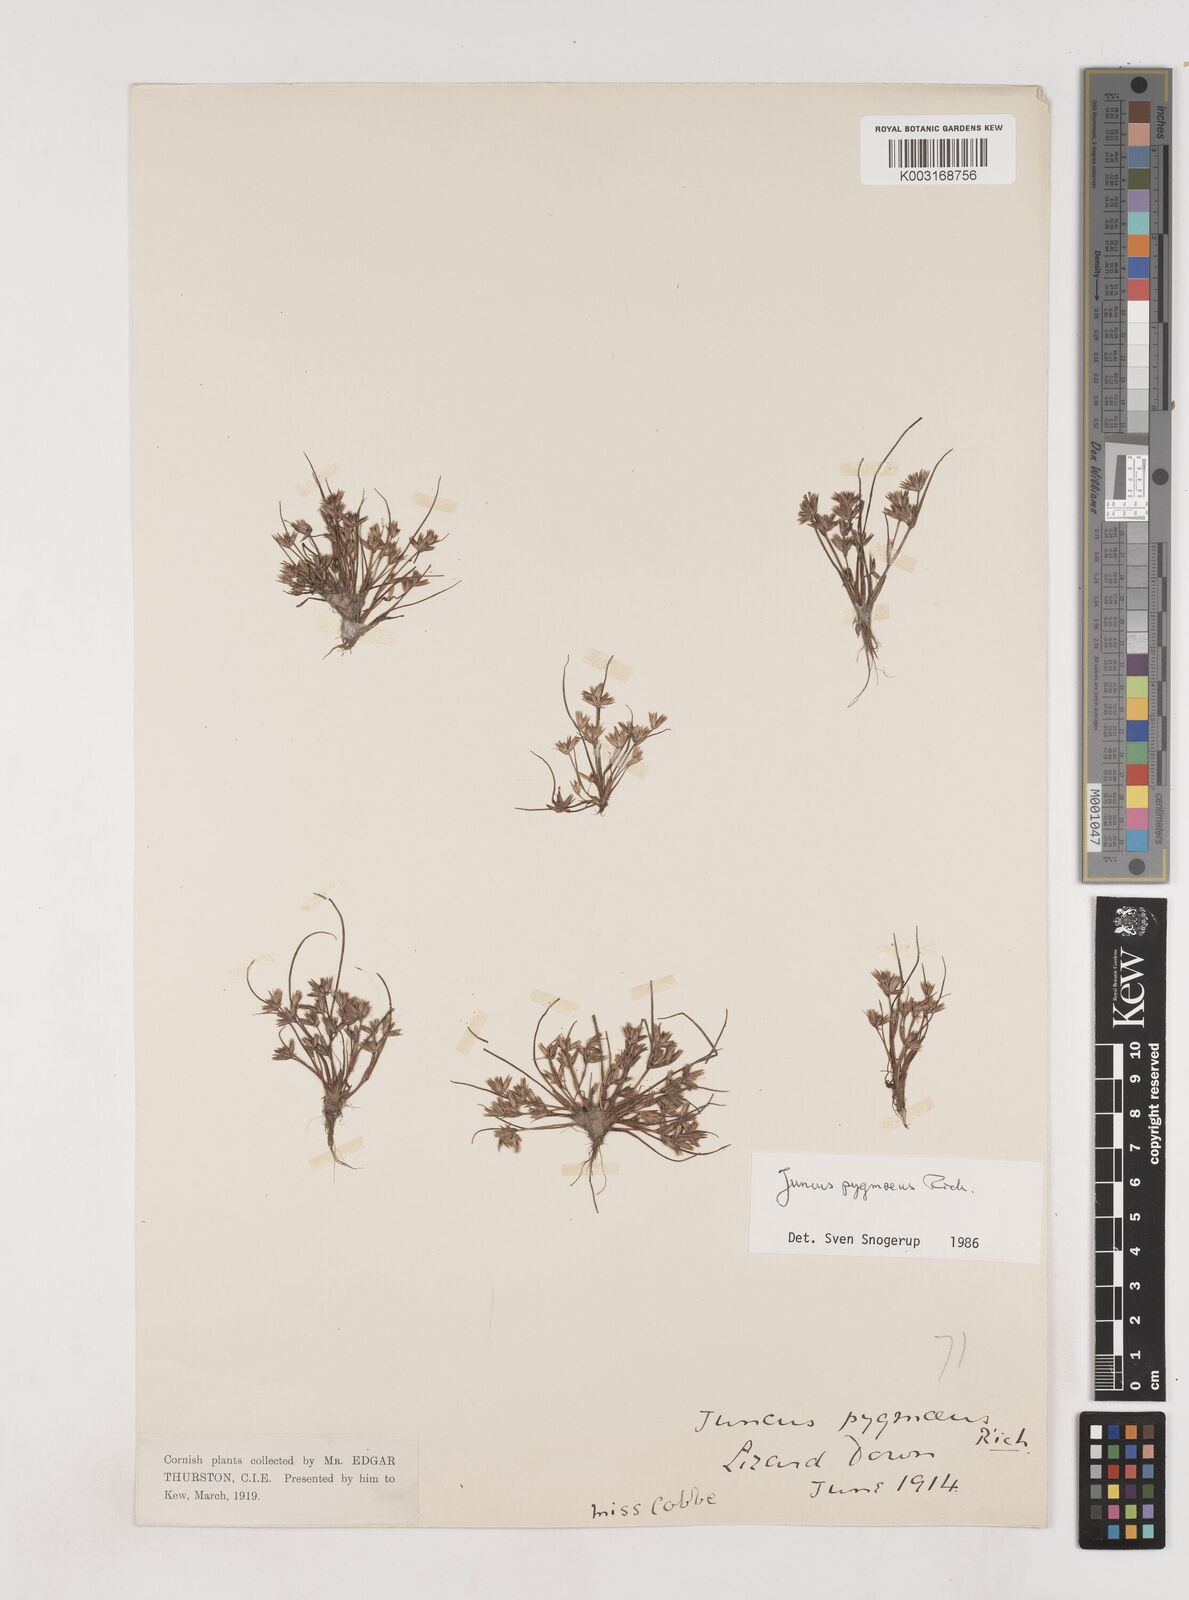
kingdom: Plantae
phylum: Tracheophyta
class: Liliopsida
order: Poales
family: Juncaceae
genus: Juncus
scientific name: Juncus pygmaeus
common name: Pigmy rush
